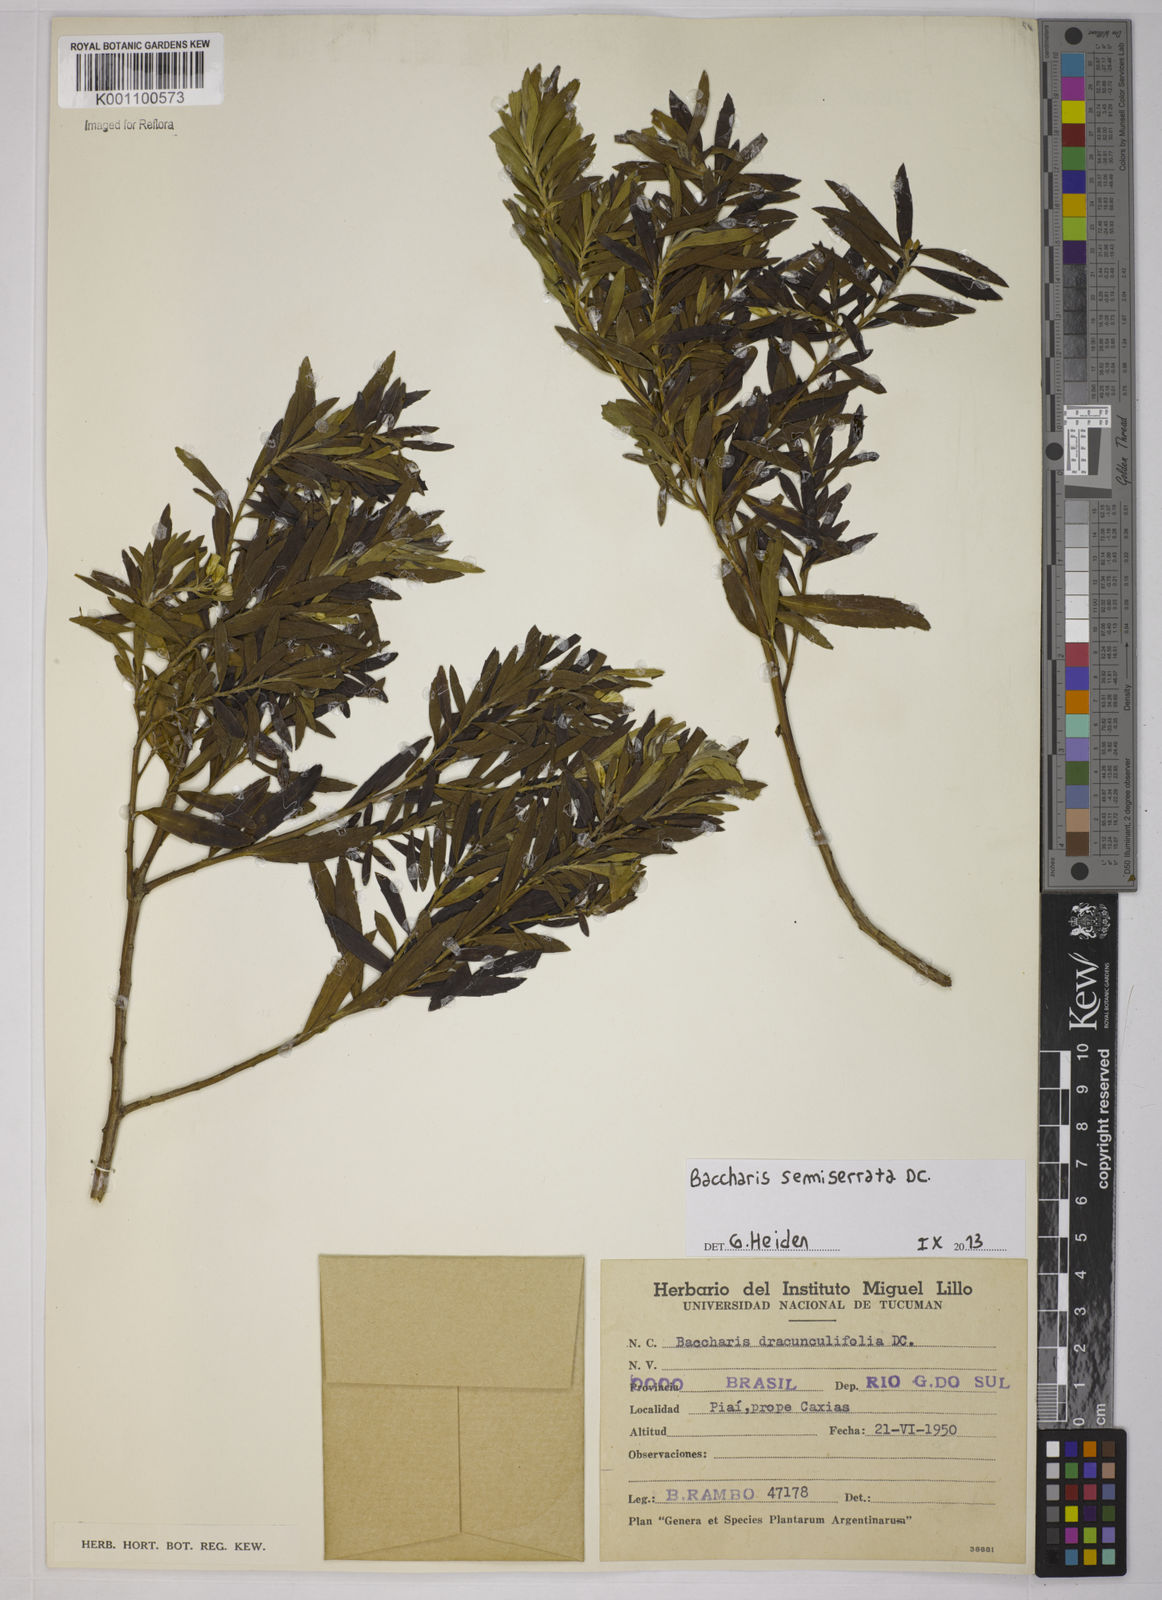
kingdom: Plantae
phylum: Tracheophyta
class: Magnoliopsida
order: Asterales
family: Asteraceae
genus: Baccharis
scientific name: Baccharis gnidiifolia
